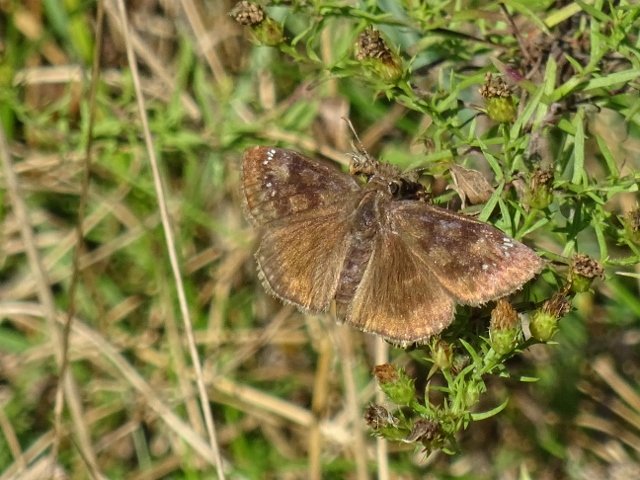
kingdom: Animalia
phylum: Arthropoda
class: Insecta
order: Lepidoptera
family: Hesperiidae
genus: Gesta
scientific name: Gesta
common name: Wild Indigo Duskywing
